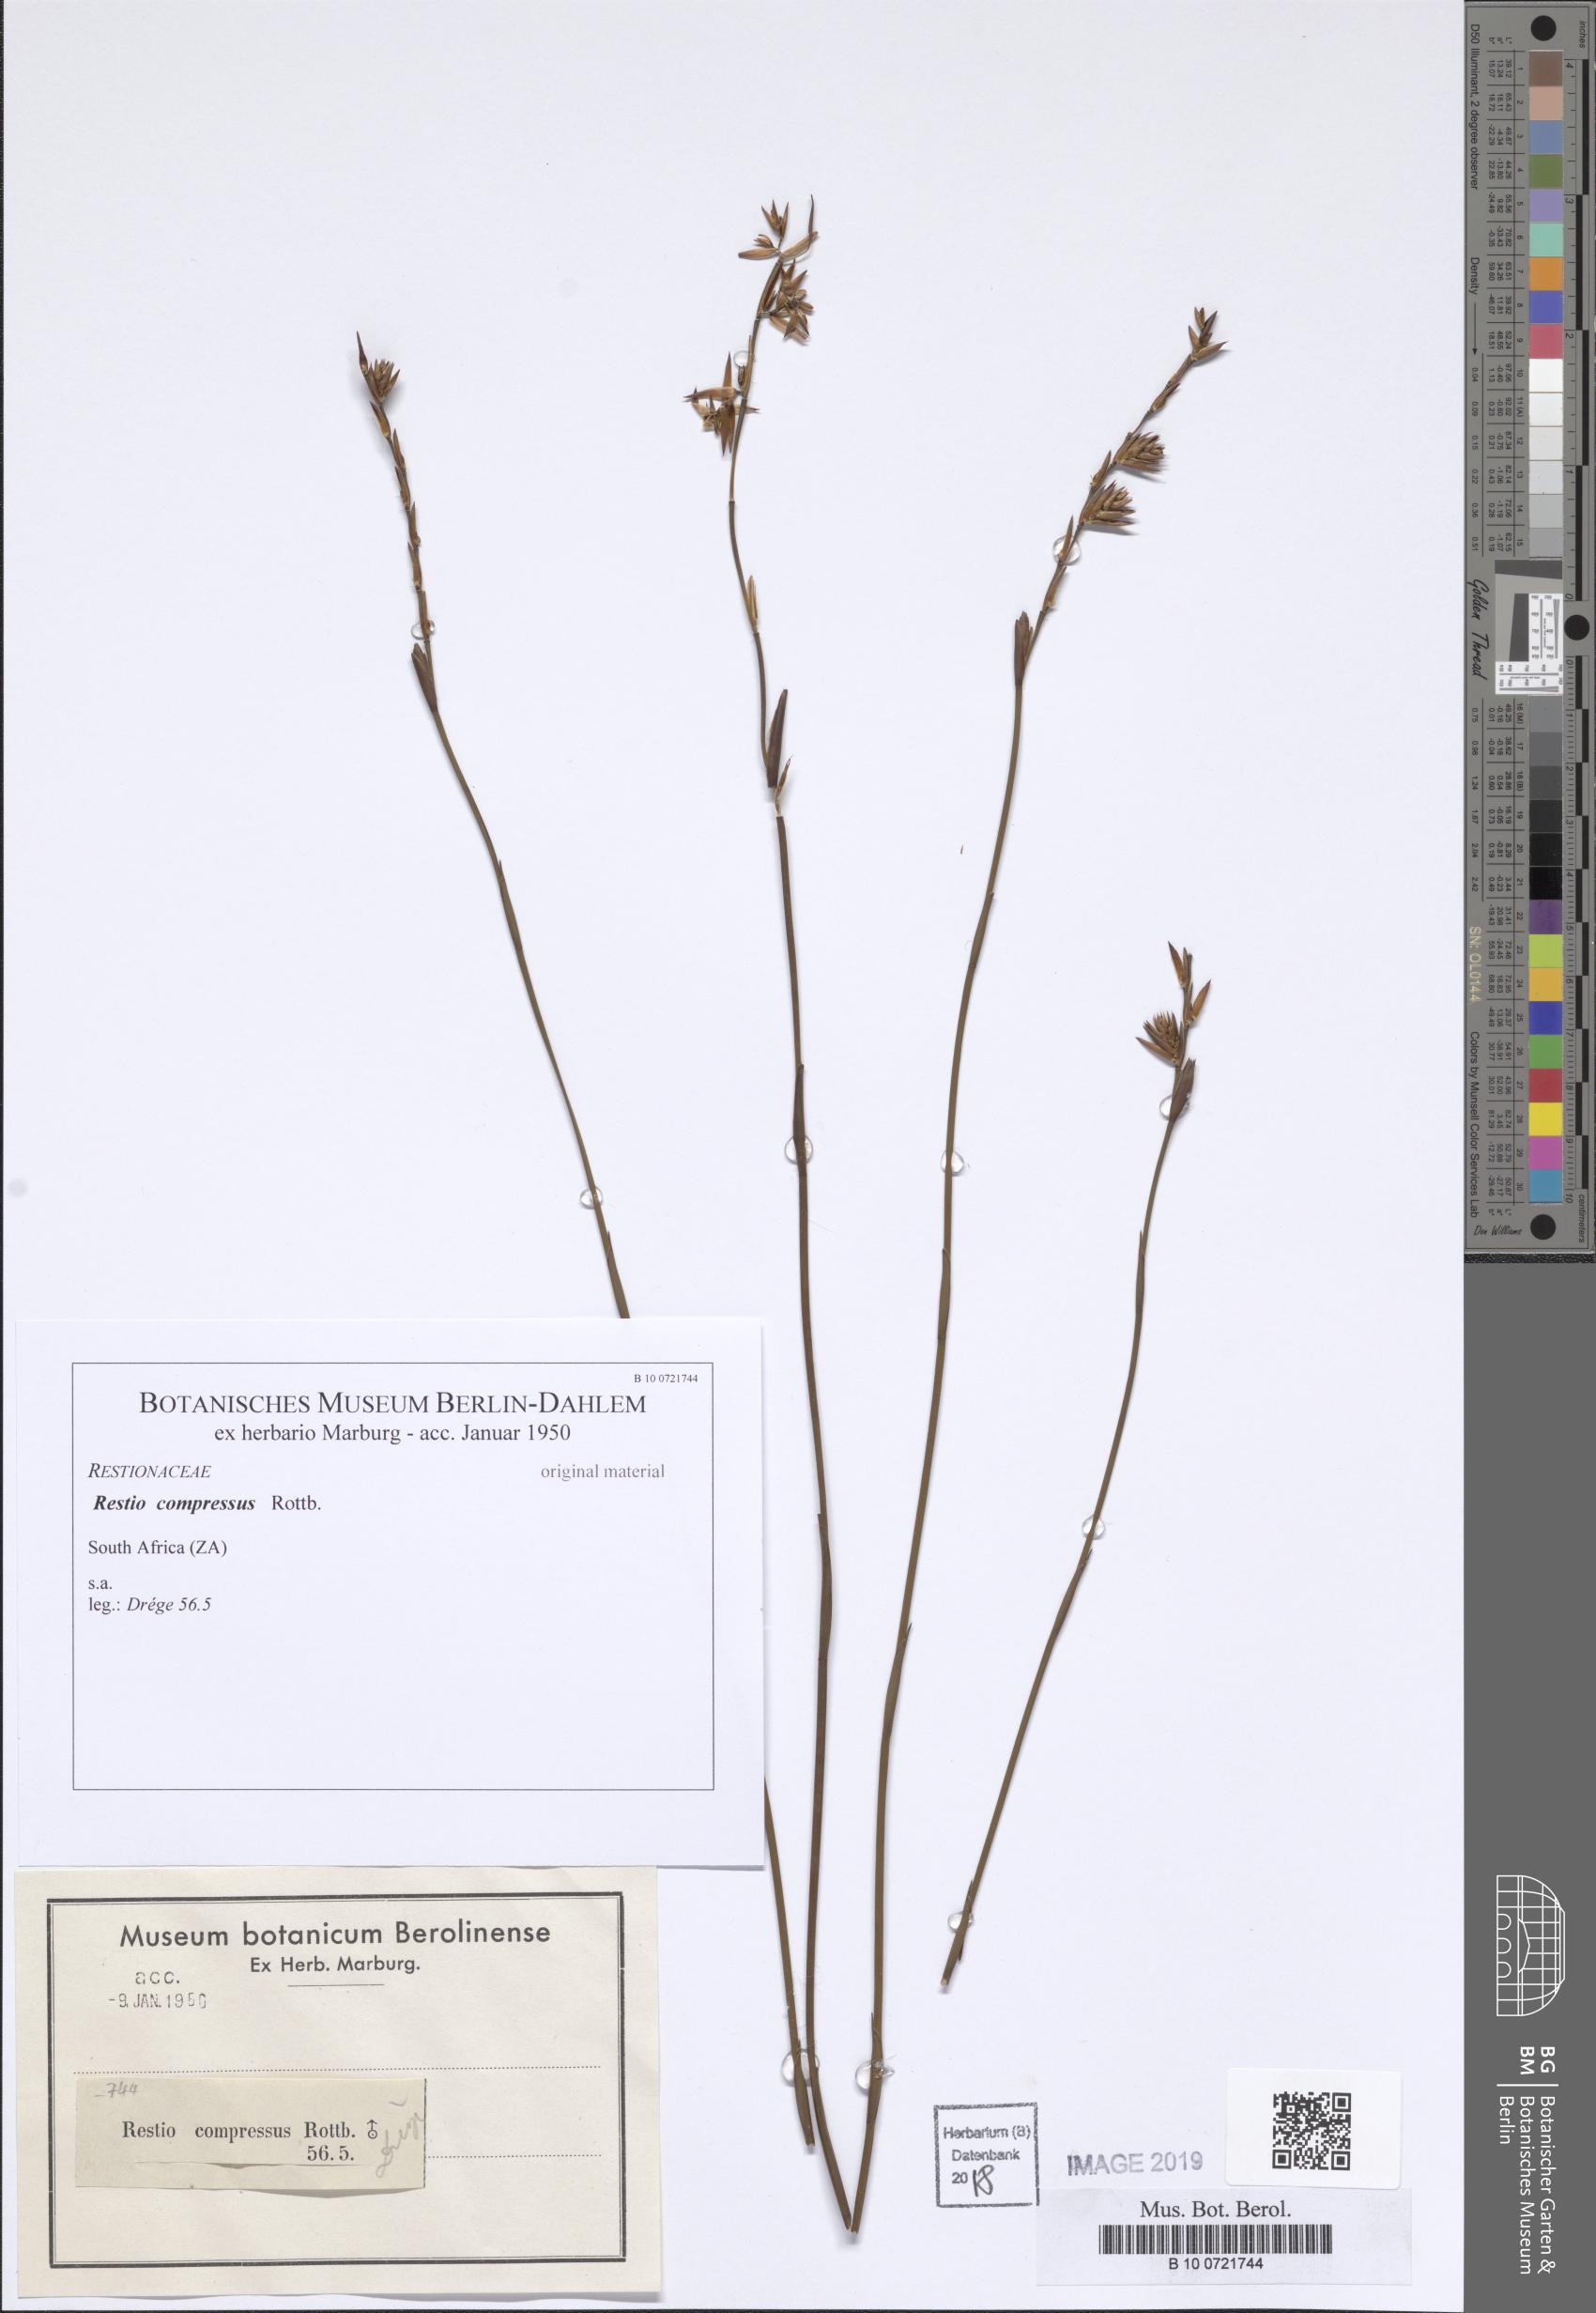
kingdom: Plantae
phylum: Tracheophyta
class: Liliopsida
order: Poales
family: Restionaceae
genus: Platycaulos
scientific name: Platycaulos compressus
